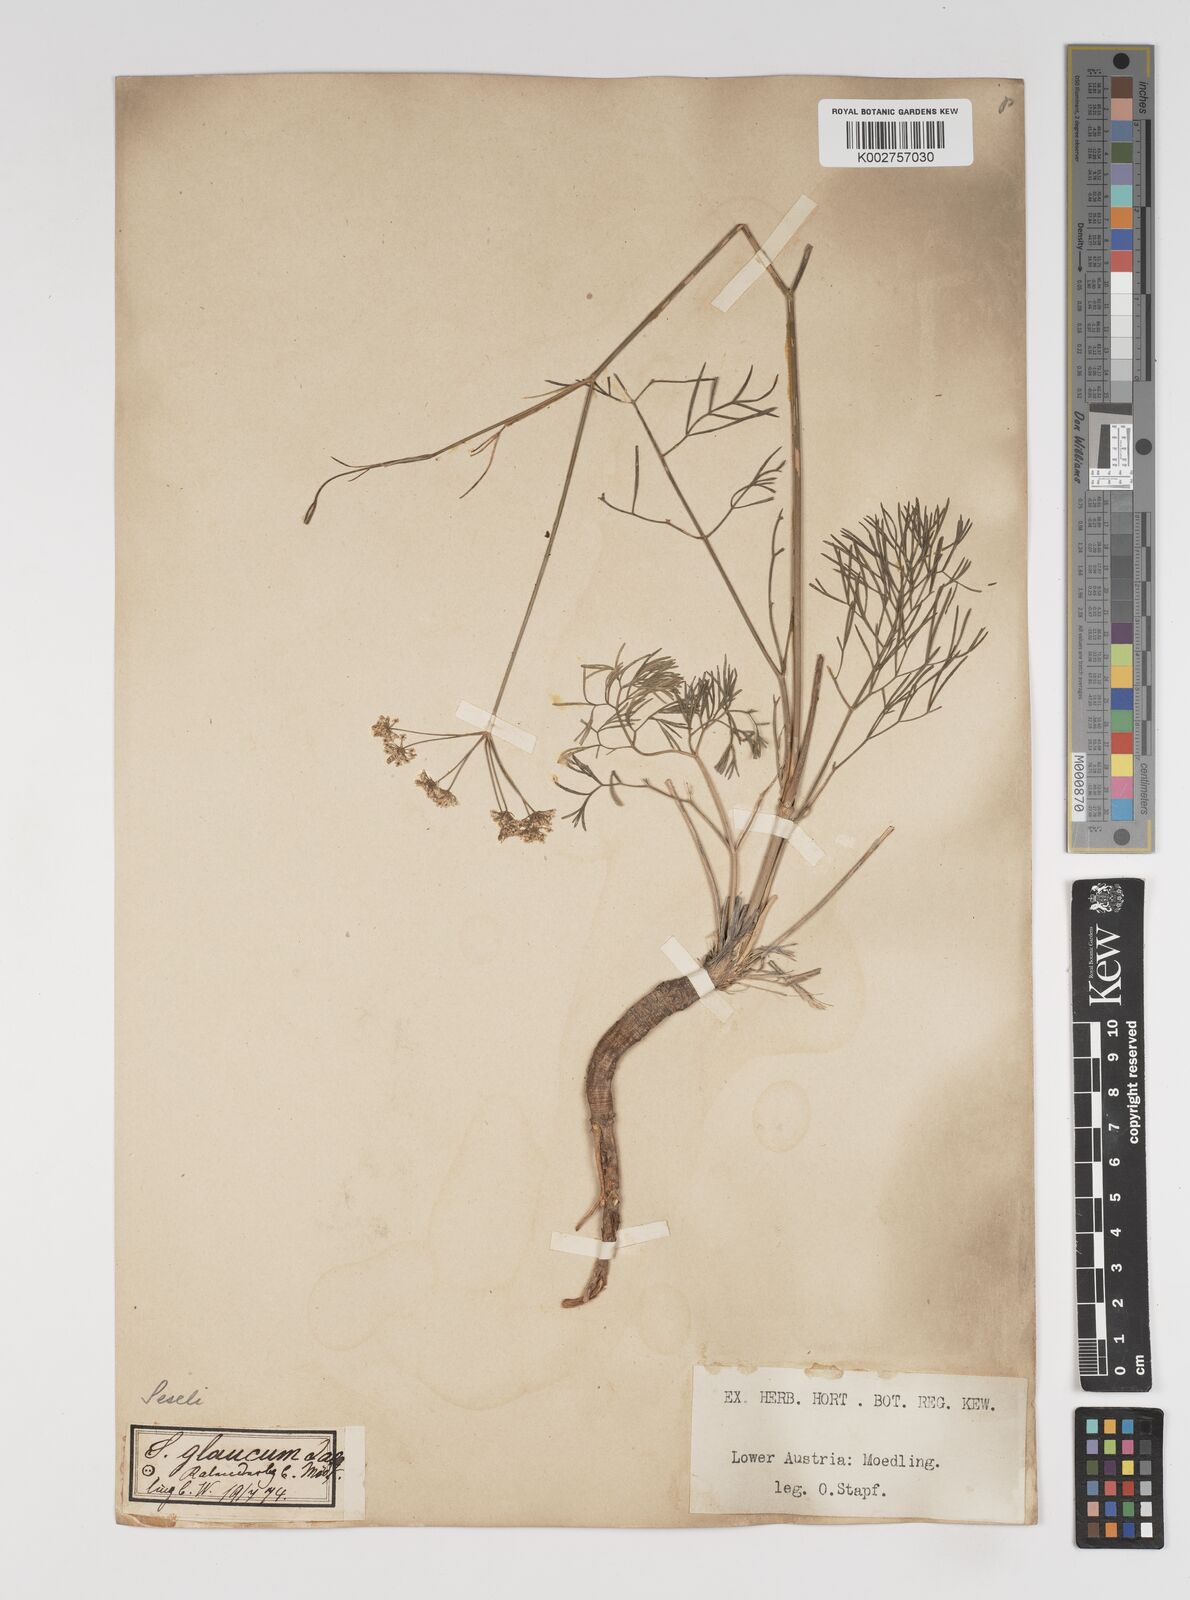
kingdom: Plantae
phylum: Tracheophyta
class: Magnoliopsida
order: Apiales
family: Apiaceae
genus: Seseli
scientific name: Seseli montanum
